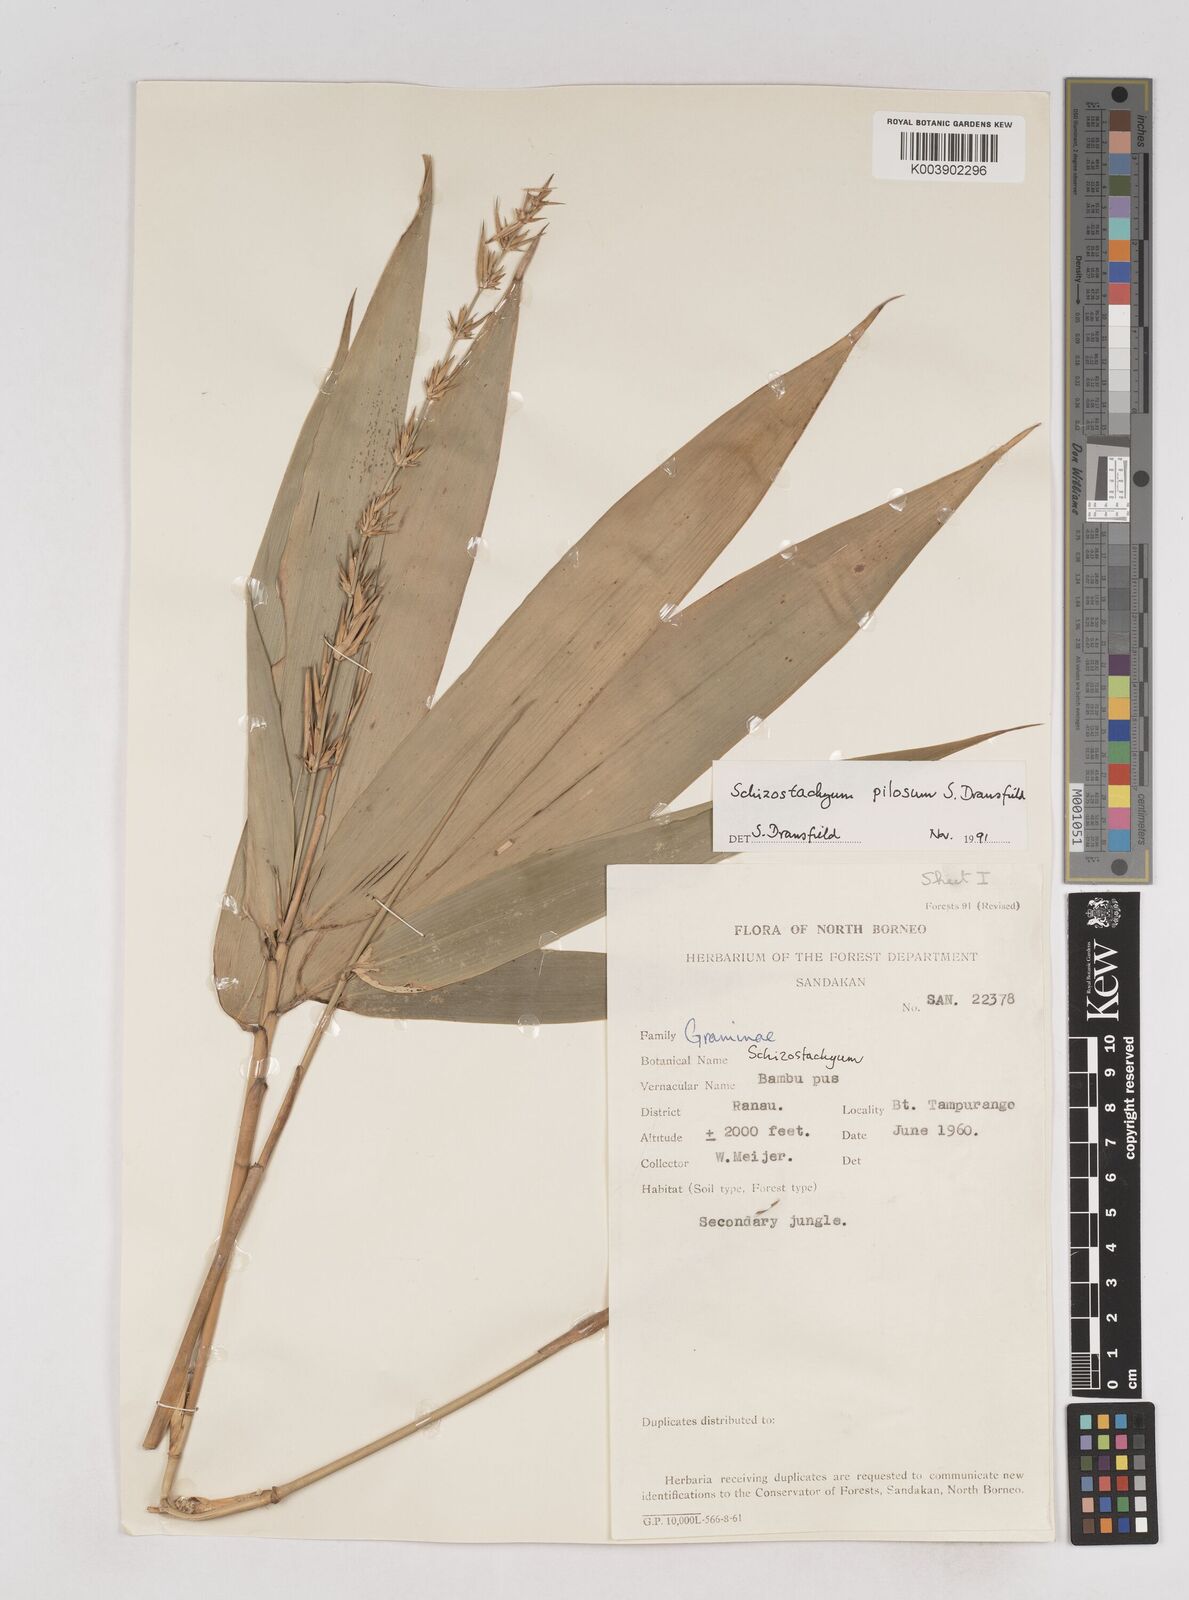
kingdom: Plantae
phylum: Tracheophyta
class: Liliopsida
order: Poales
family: Poaceae
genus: Schizostachyum
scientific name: Schizostachyum pilosum
